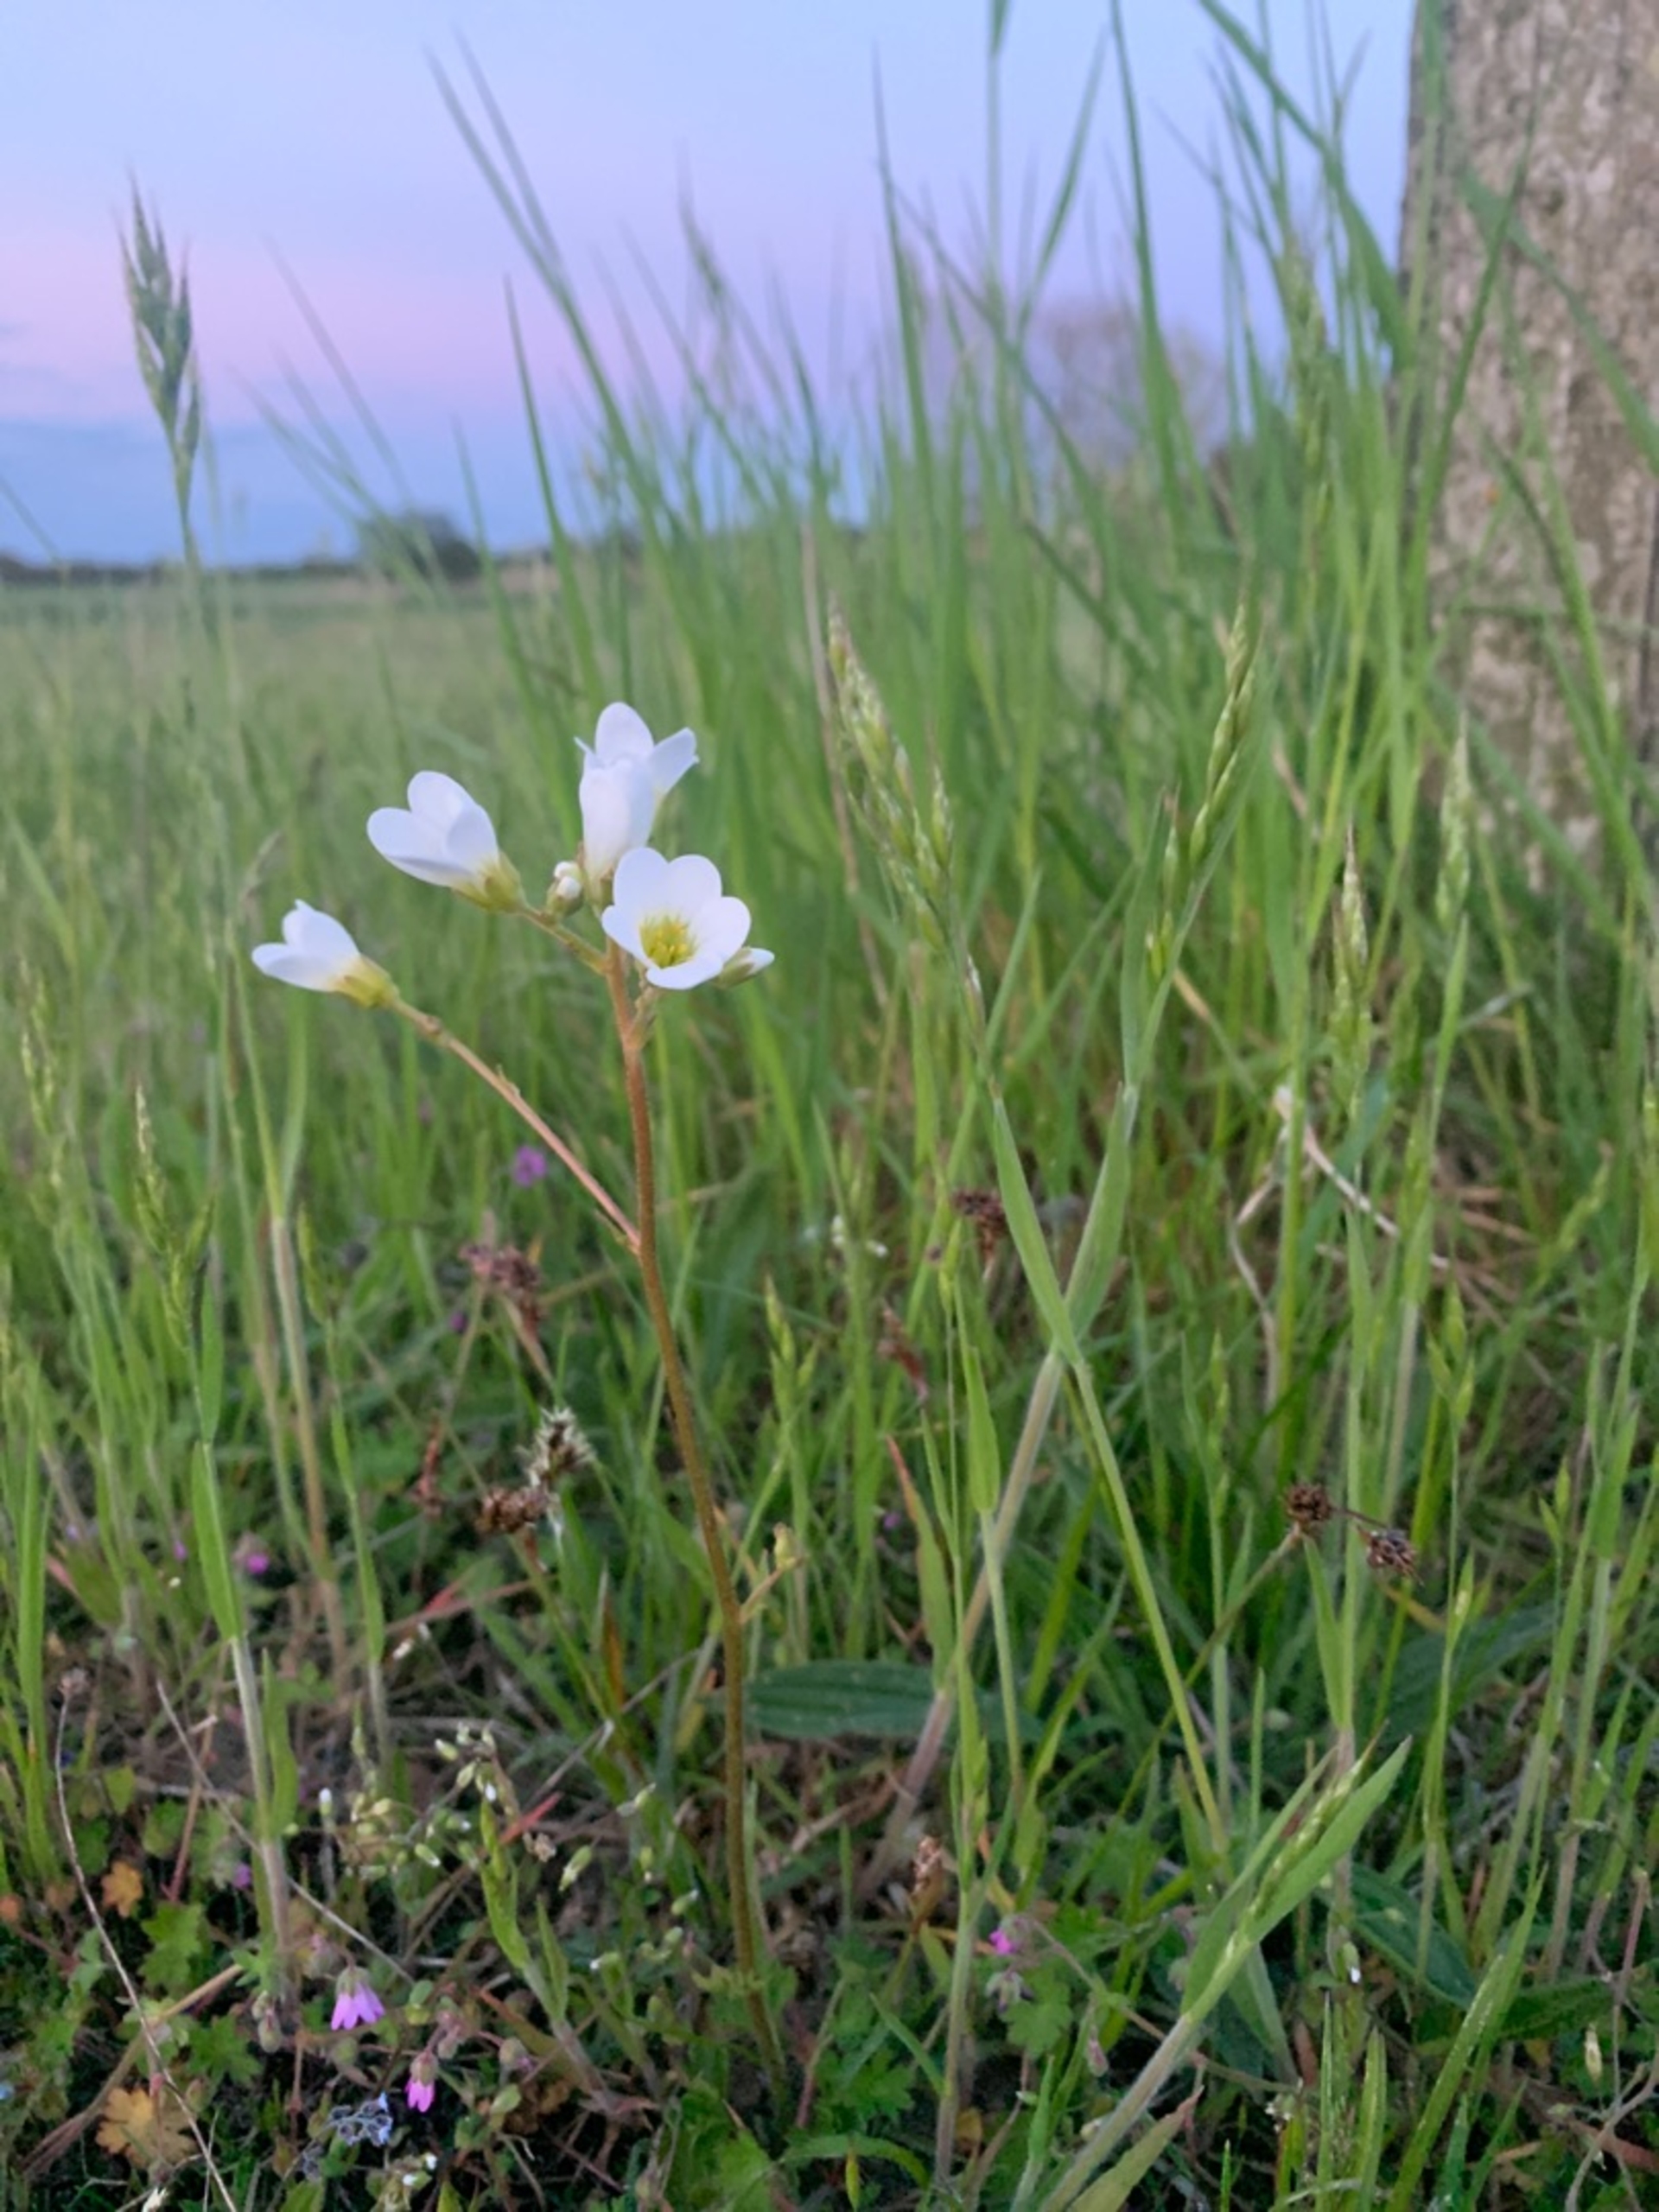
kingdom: Plantae
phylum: Tracheophyta
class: Magnoliopsida
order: Saxifragales
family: Saxifragaceae
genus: Saxifraga
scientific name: Saxifraga granulata
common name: Kornet stenbræk
